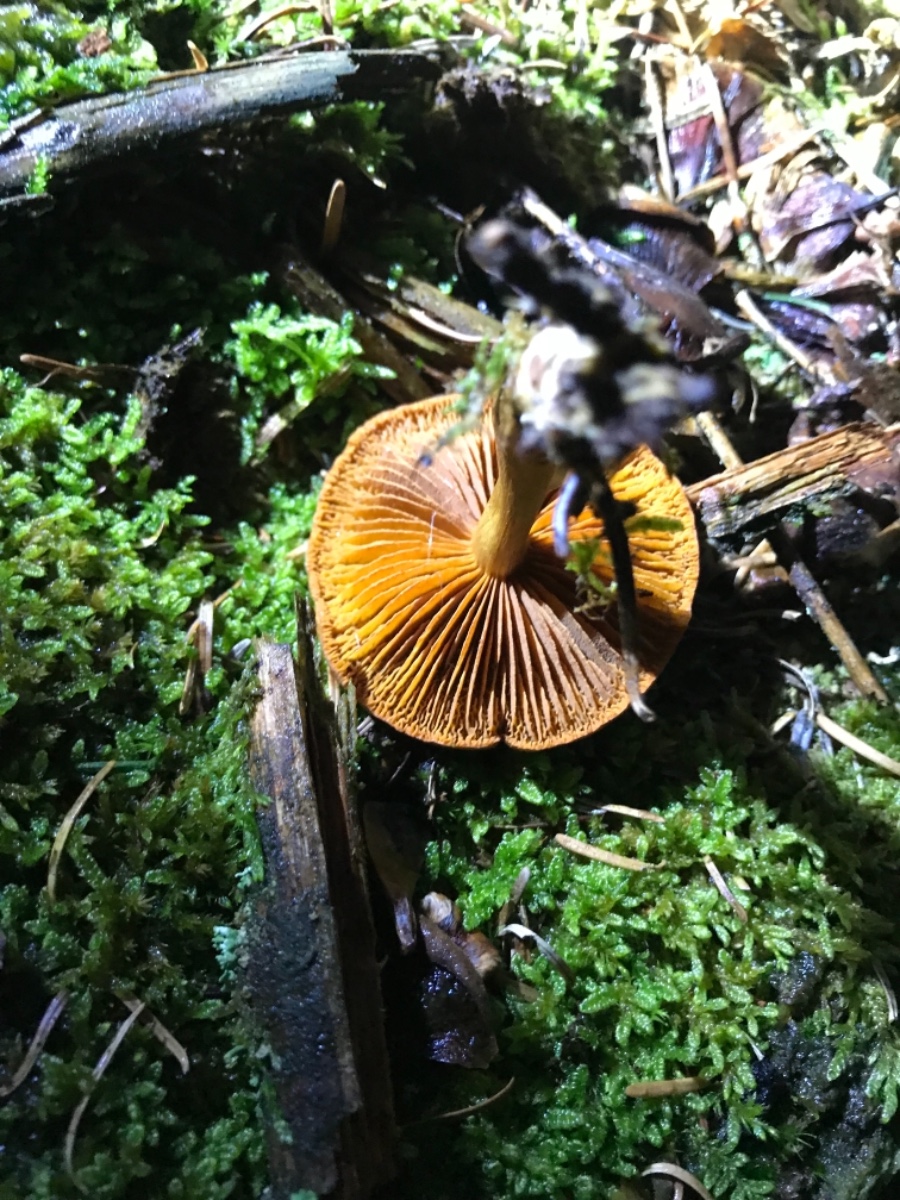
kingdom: Fungi
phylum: Basidiomycota
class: Agaricomycetes
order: Agaricales
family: Cortinariaceae
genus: Cortinarius
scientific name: Cortinarius
